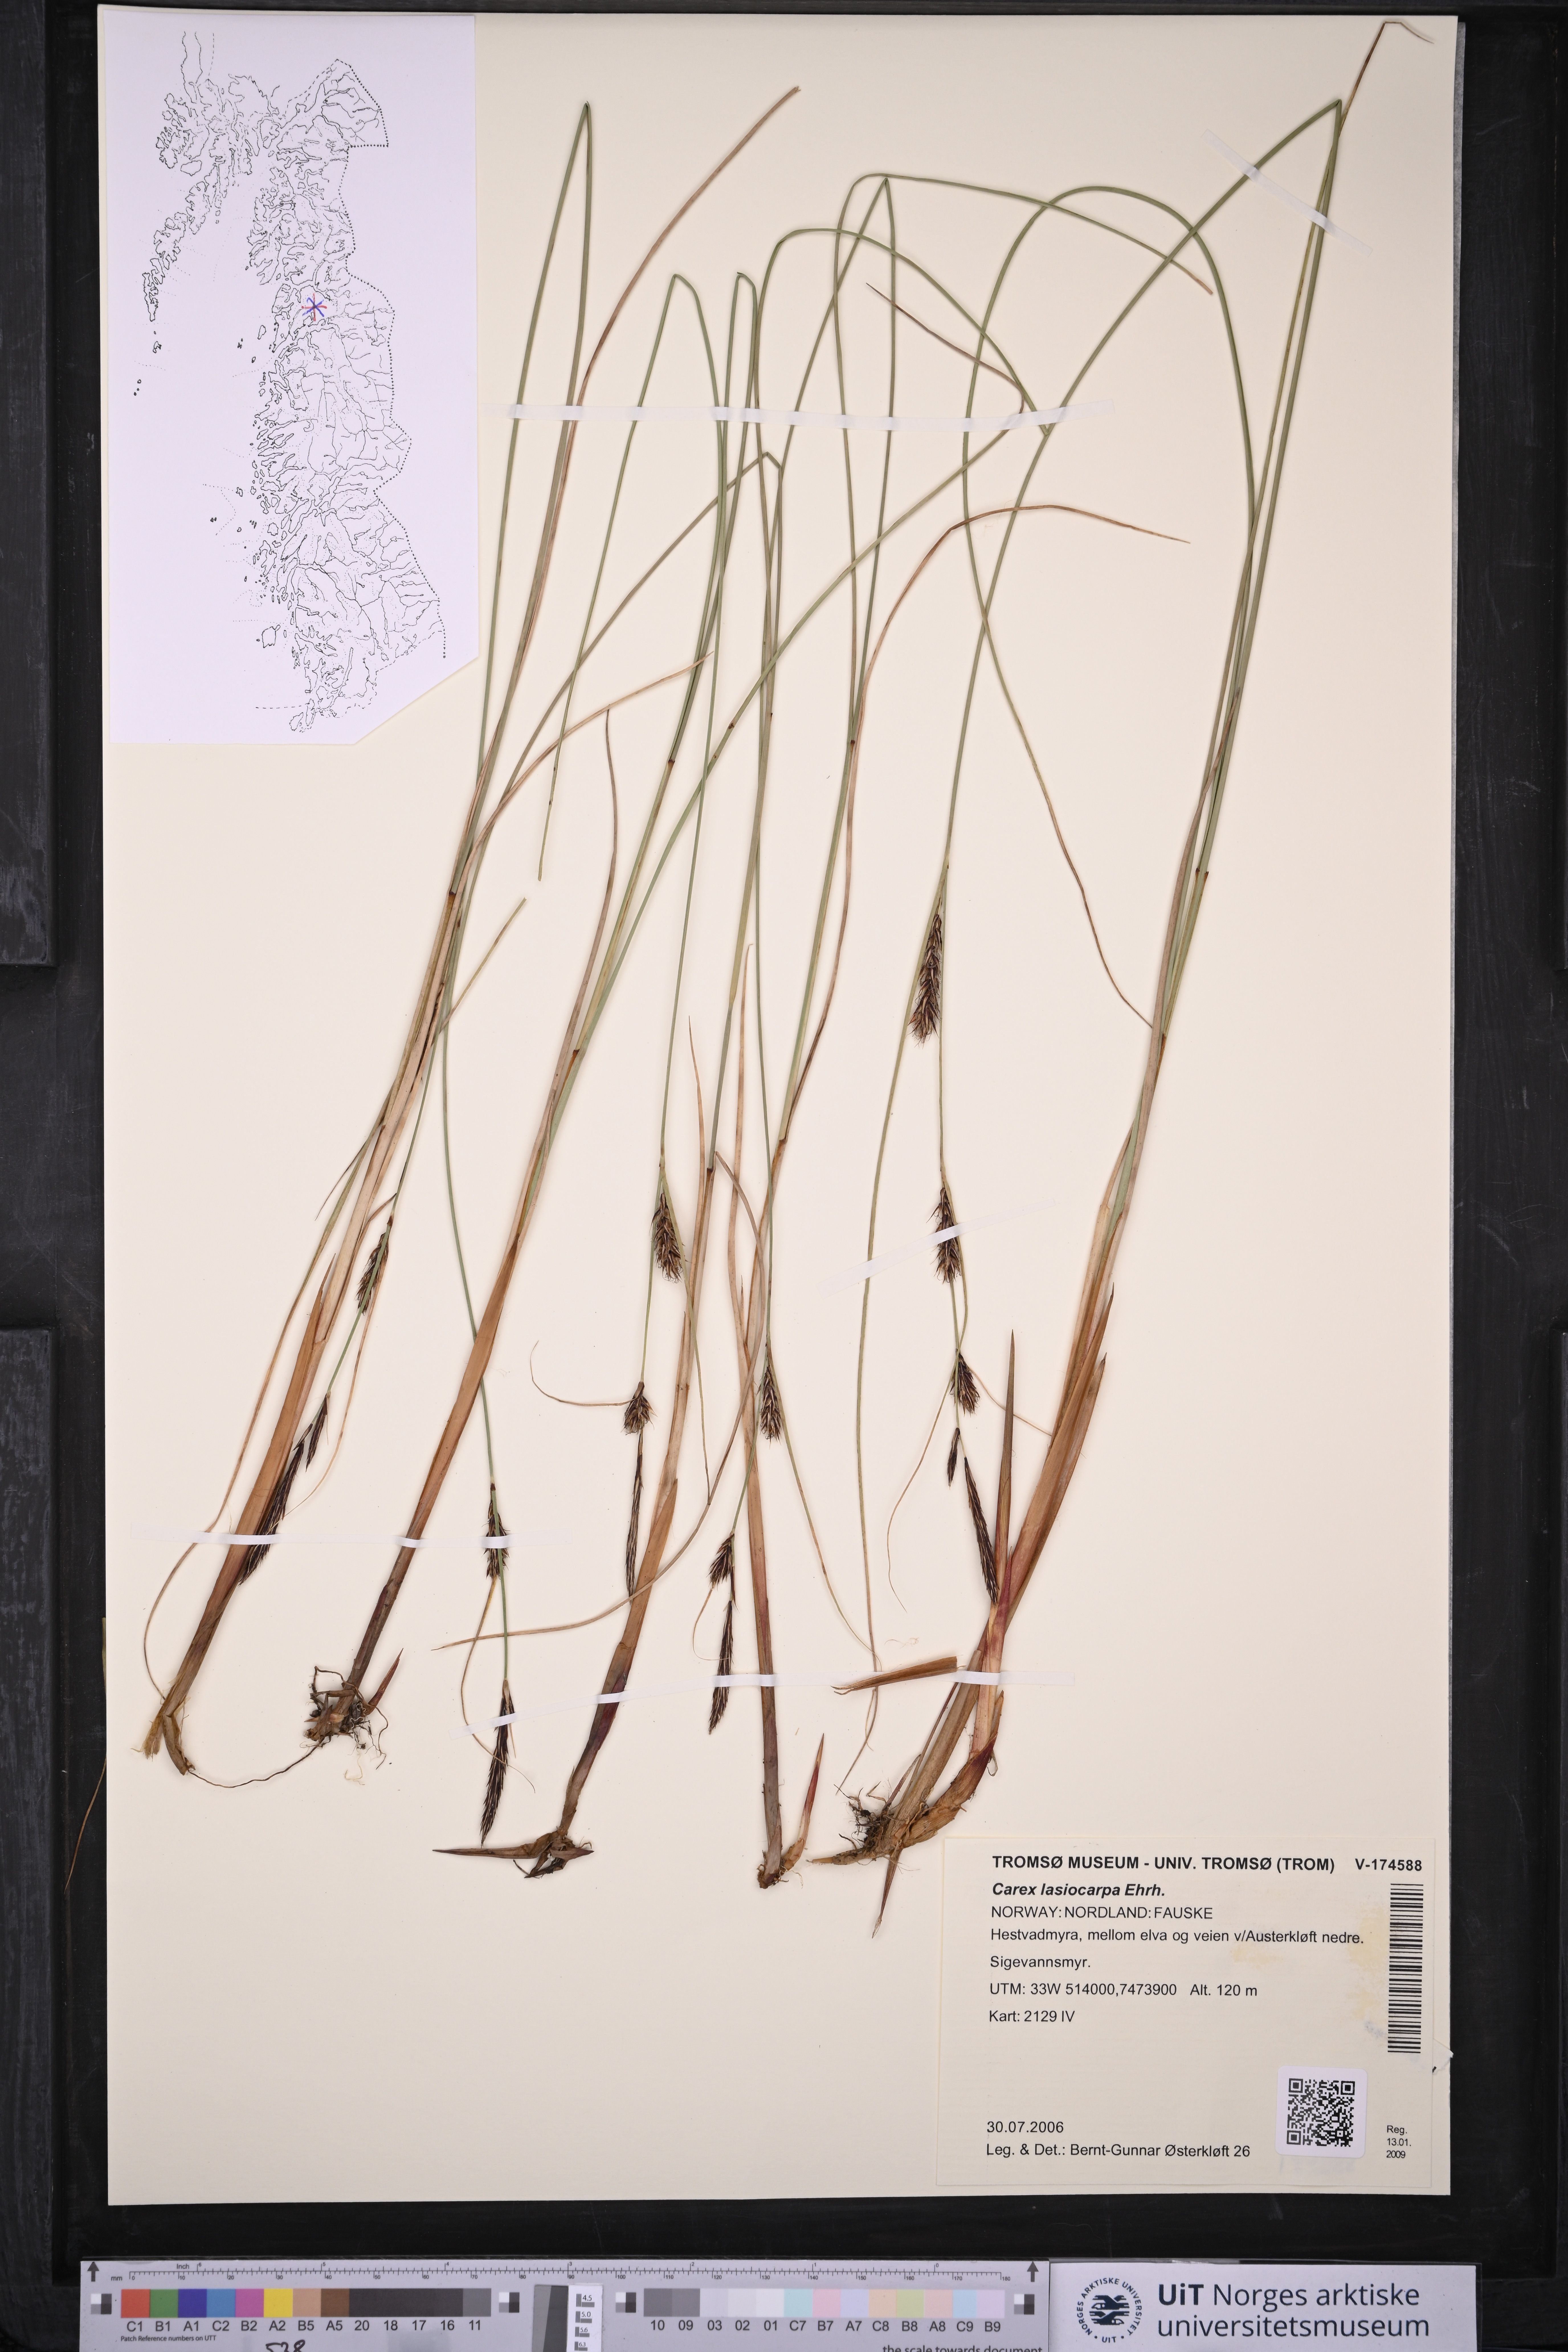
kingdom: Plantae
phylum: Tracheophyta
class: Liliopsida
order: Poales
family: Cyperaceae
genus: Carex
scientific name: Carex lasiocarpa
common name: Slender sedge
